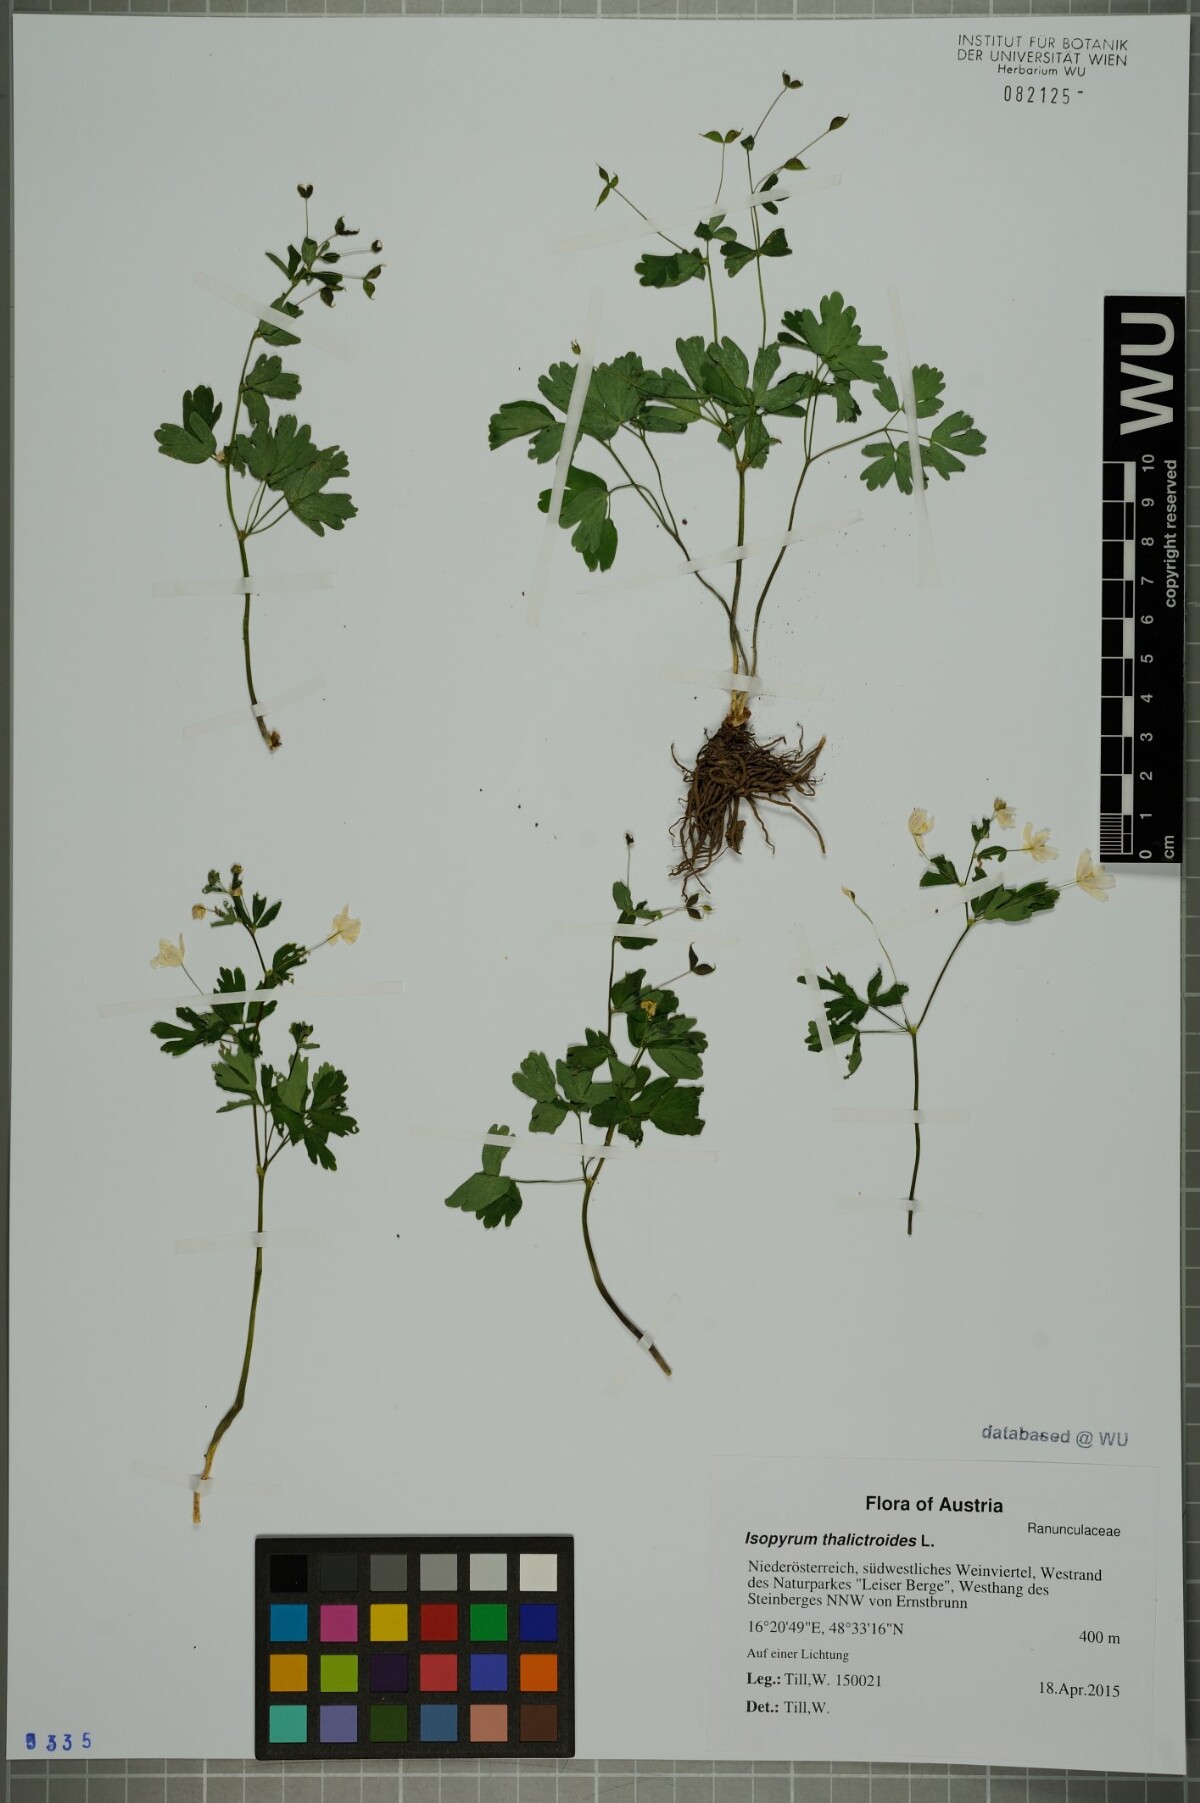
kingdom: Plantae
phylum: Tracheophyta
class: Magnoliopsida
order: Ranunculales
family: Ranunculaceae
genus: Isopyrum
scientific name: Isopyrum thalictroides
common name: Isopyrum
